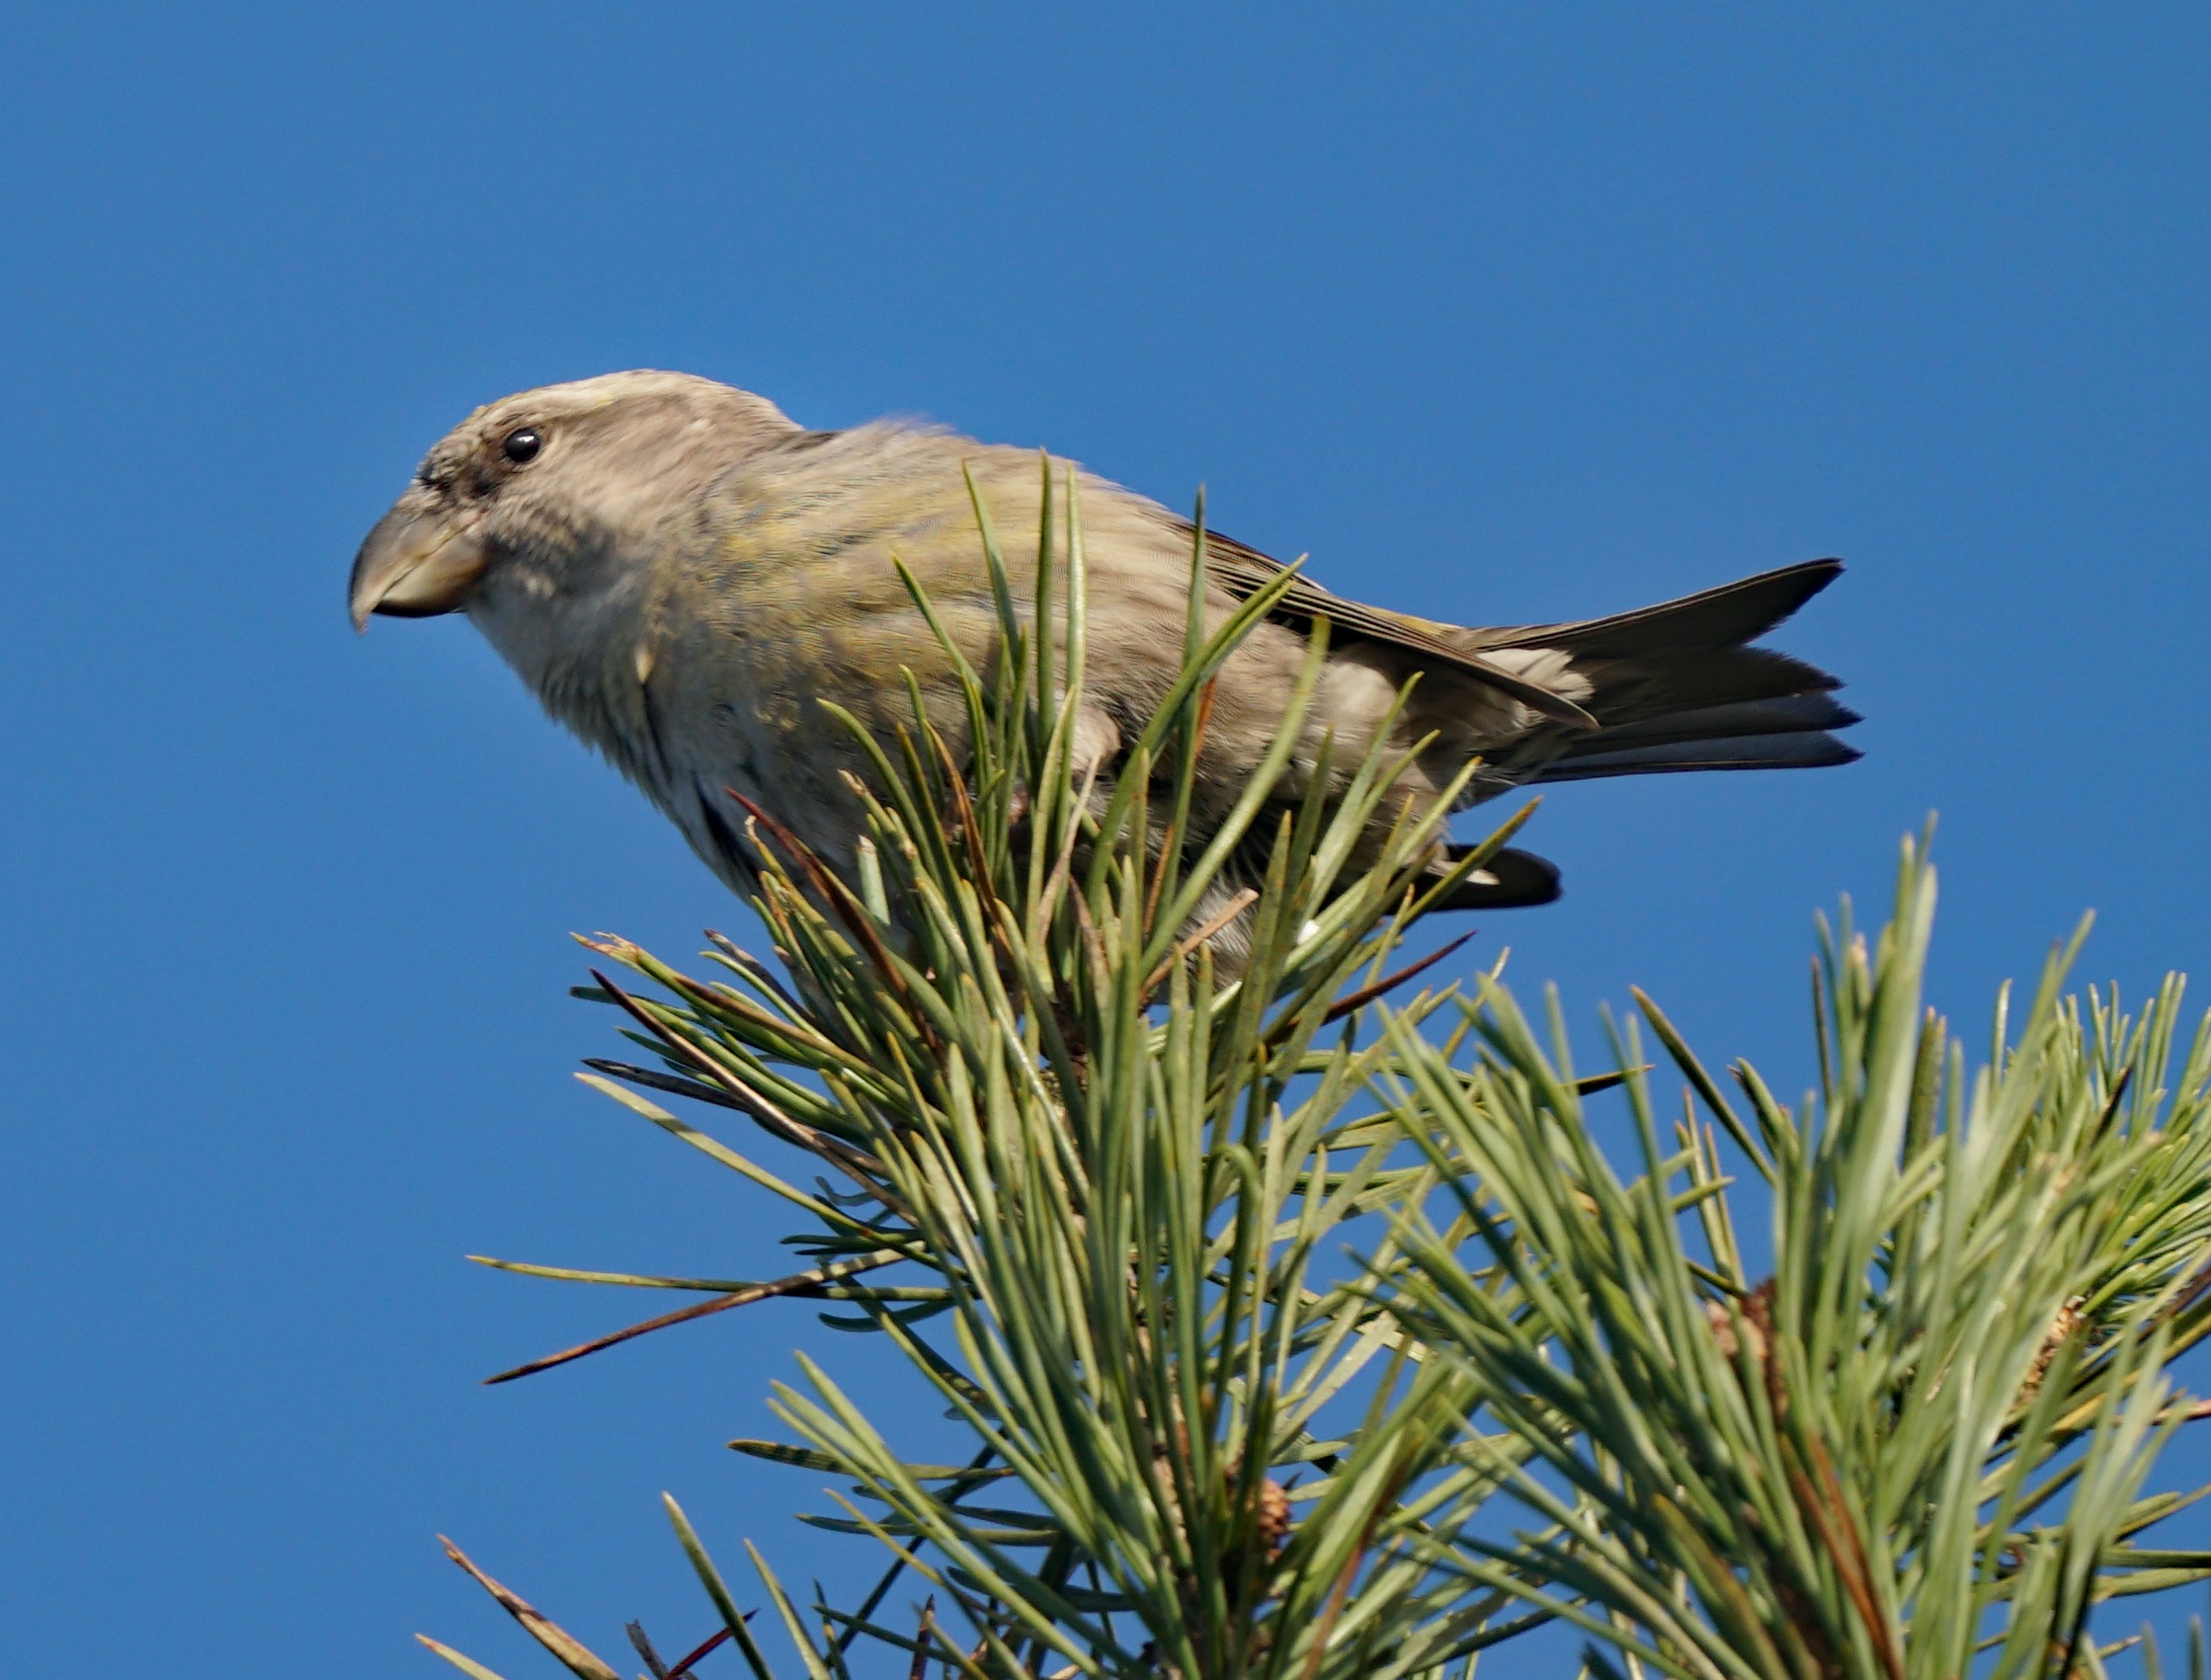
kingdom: Animalia
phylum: Chordata
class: Aves
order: Passeriformes
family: Fringillidae
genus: Loxia
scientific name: Loxia pytyopsittacus
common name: Stor korsnæb
